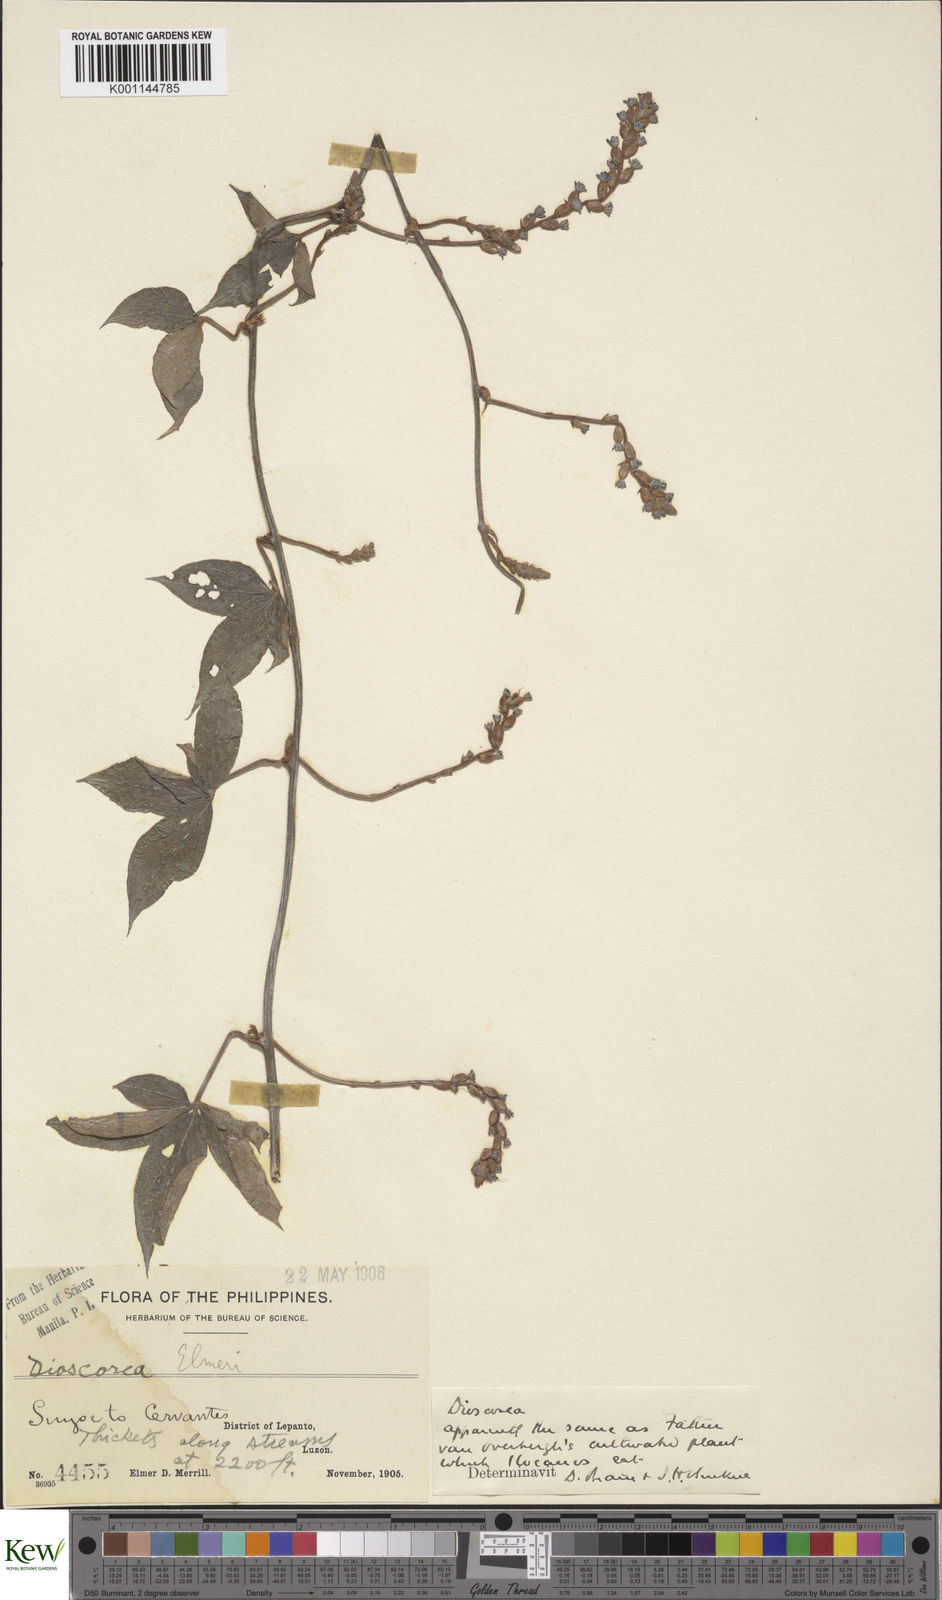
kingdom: Plantae
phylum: Tracheophyta
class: Liliopsida
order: Dioscoreales
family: Dioscoreaceae
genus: Dioscorea
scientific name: Dioscorea cumingii
